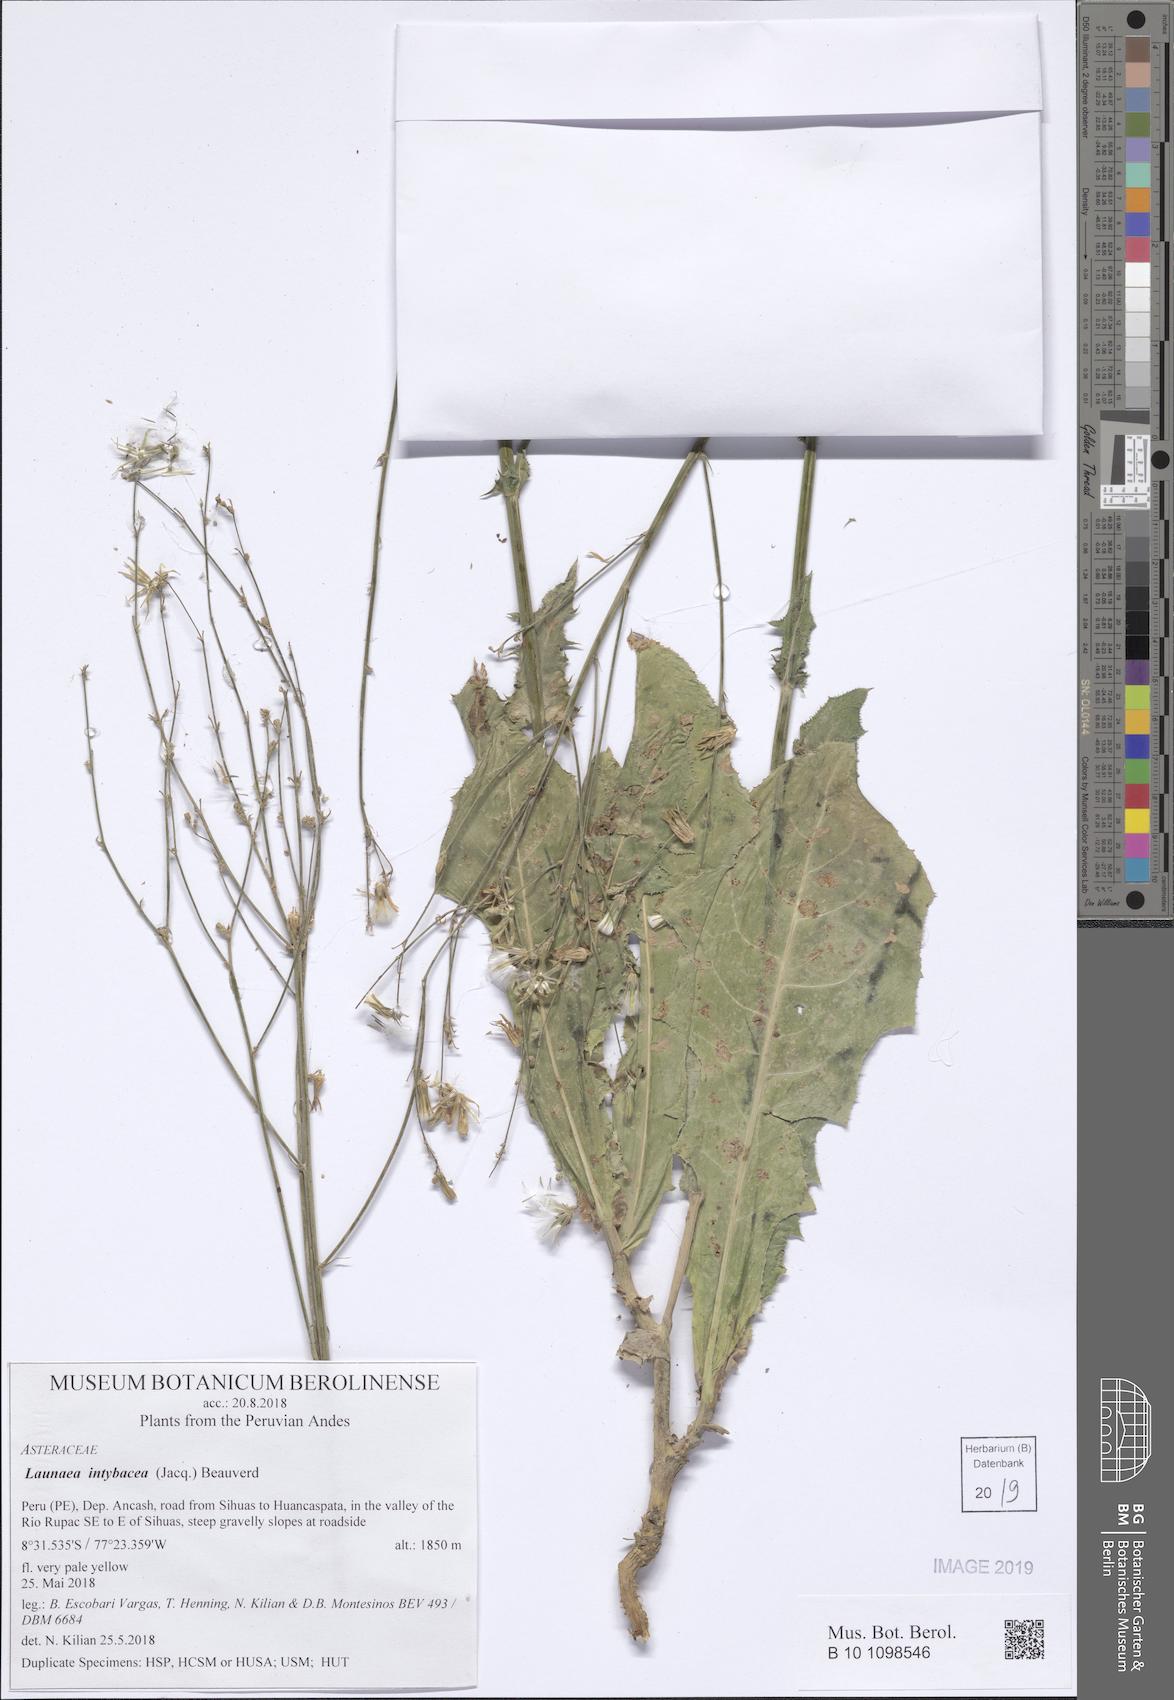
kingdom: Plantae
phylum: Tracheophyta
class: Magnoliopsida
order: Asterales
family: Asteraceae
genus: Launaea
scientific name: Launaea intybacea
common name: Achicoria azul
